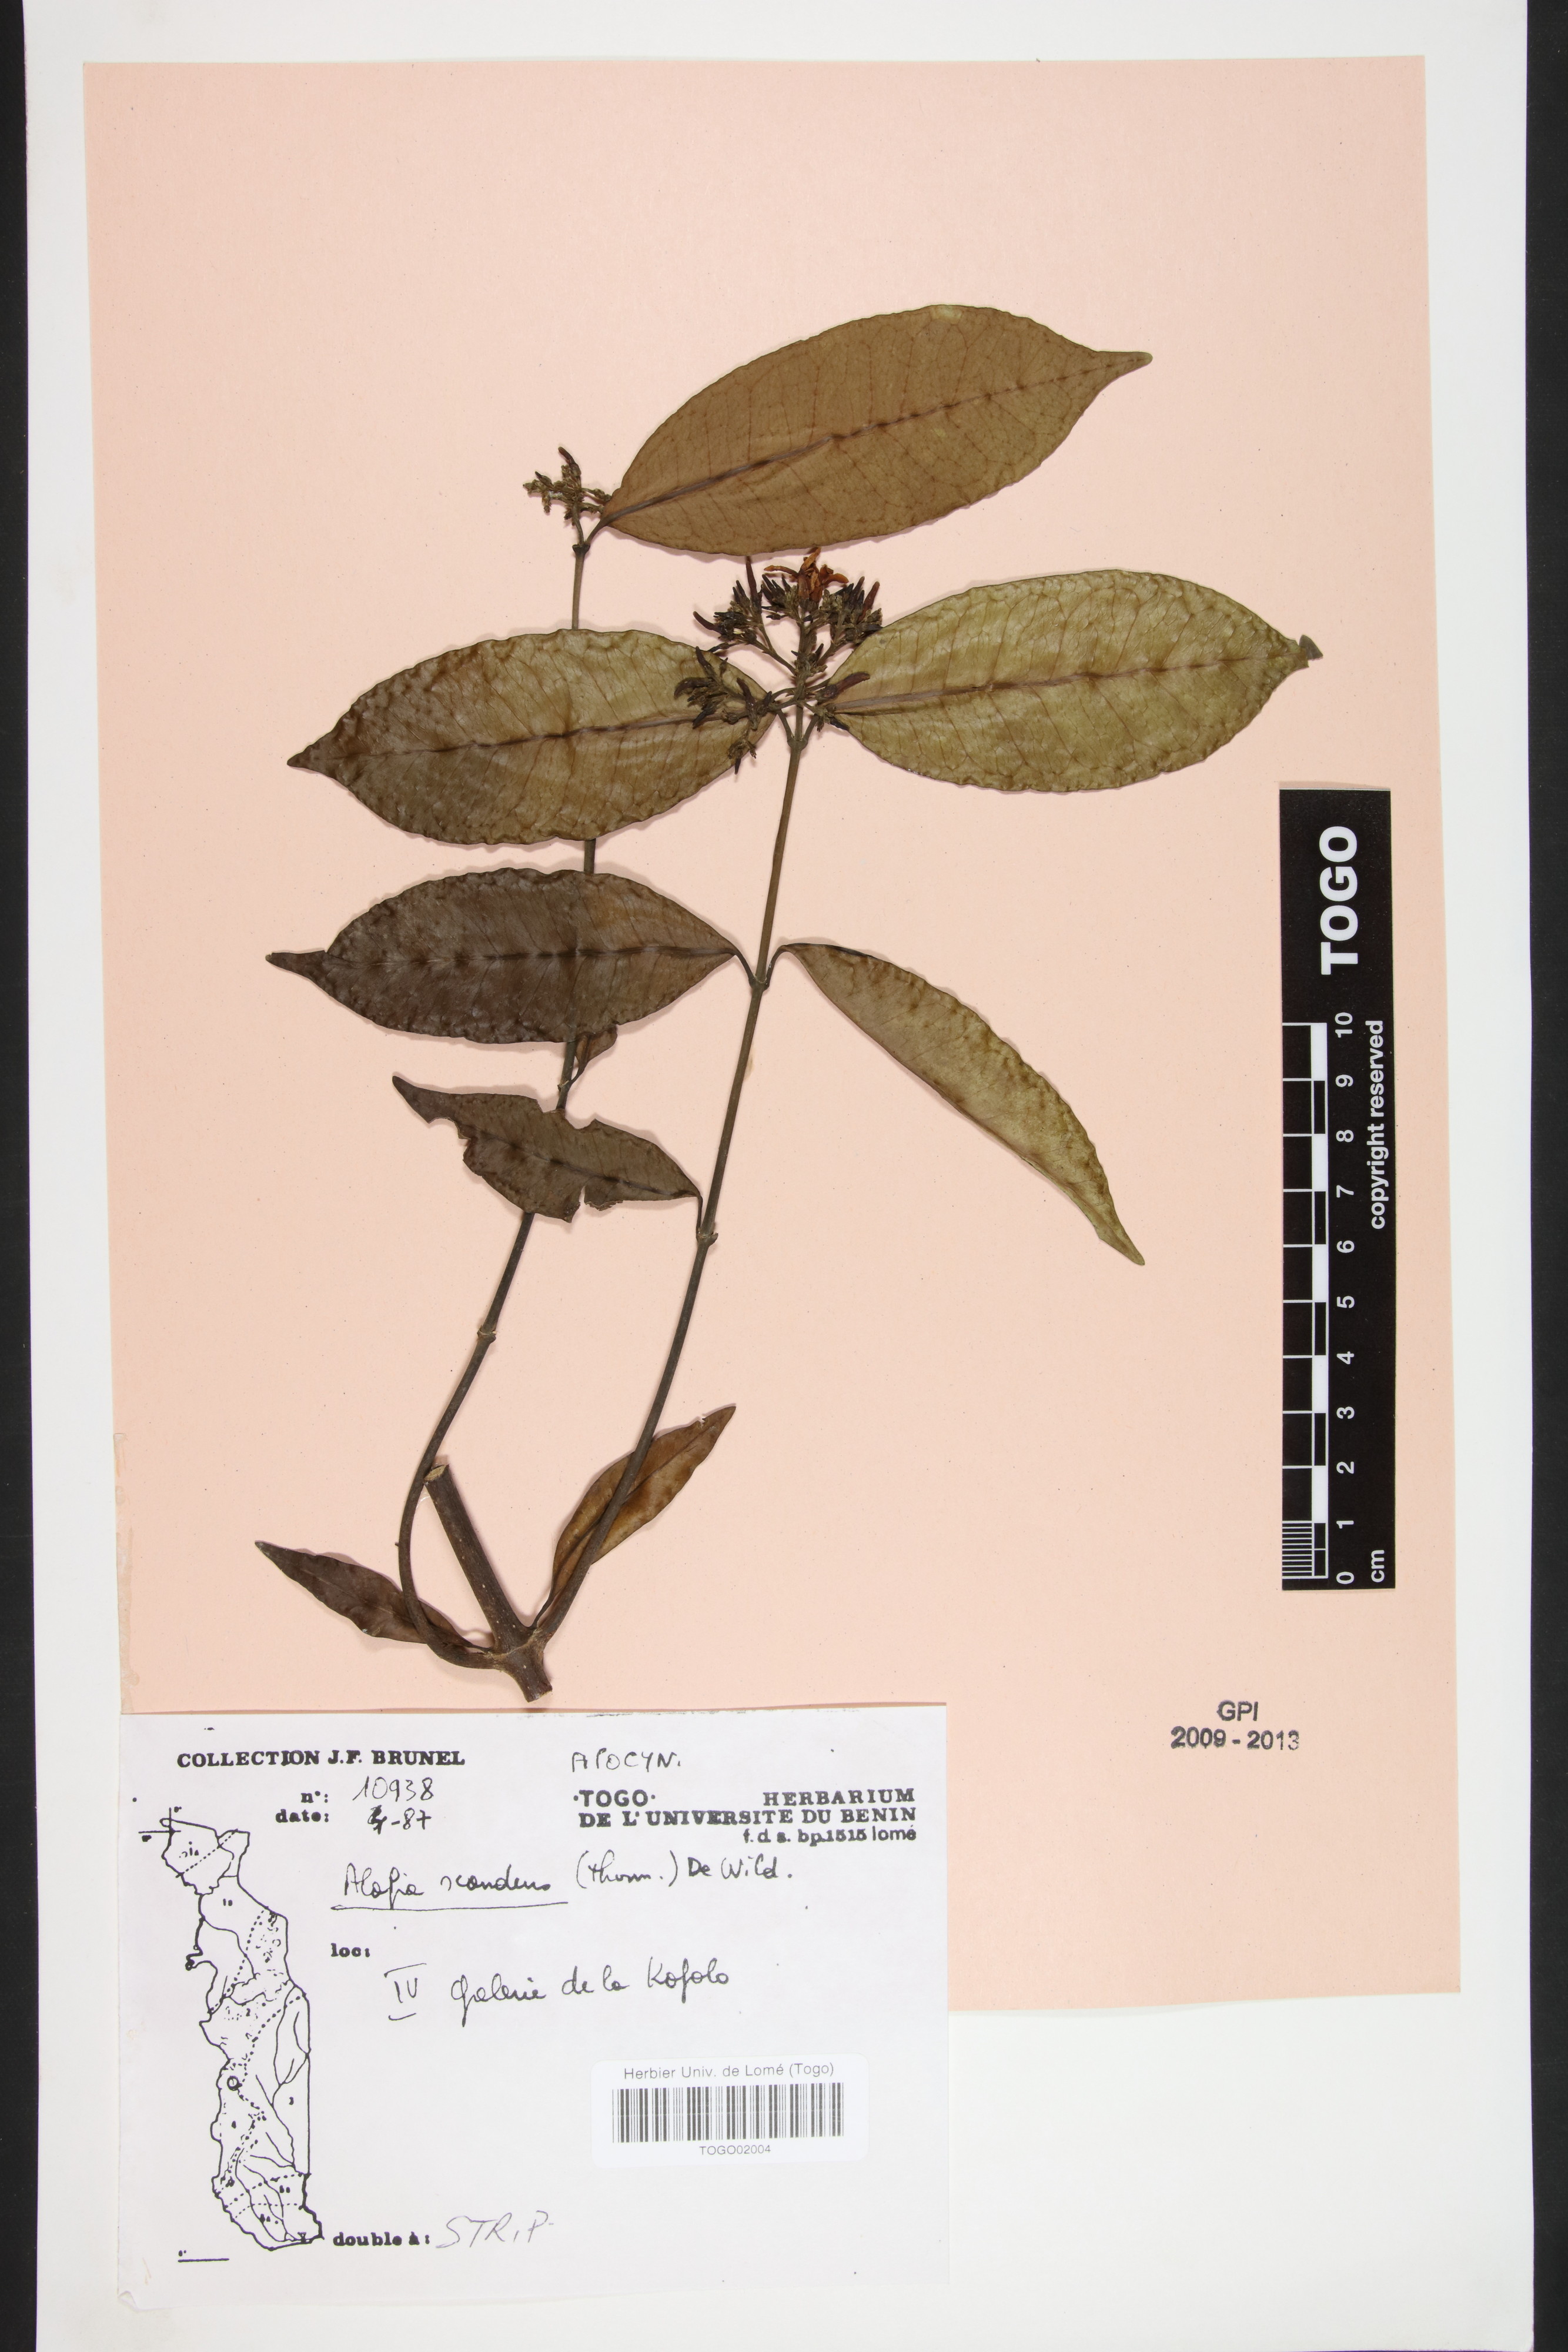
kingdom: Plantae
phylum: Tracheophyta
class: Magnoliopsida
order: Gentianales
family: Apocynaceae
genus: Alafia
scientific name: Alafia scandens
